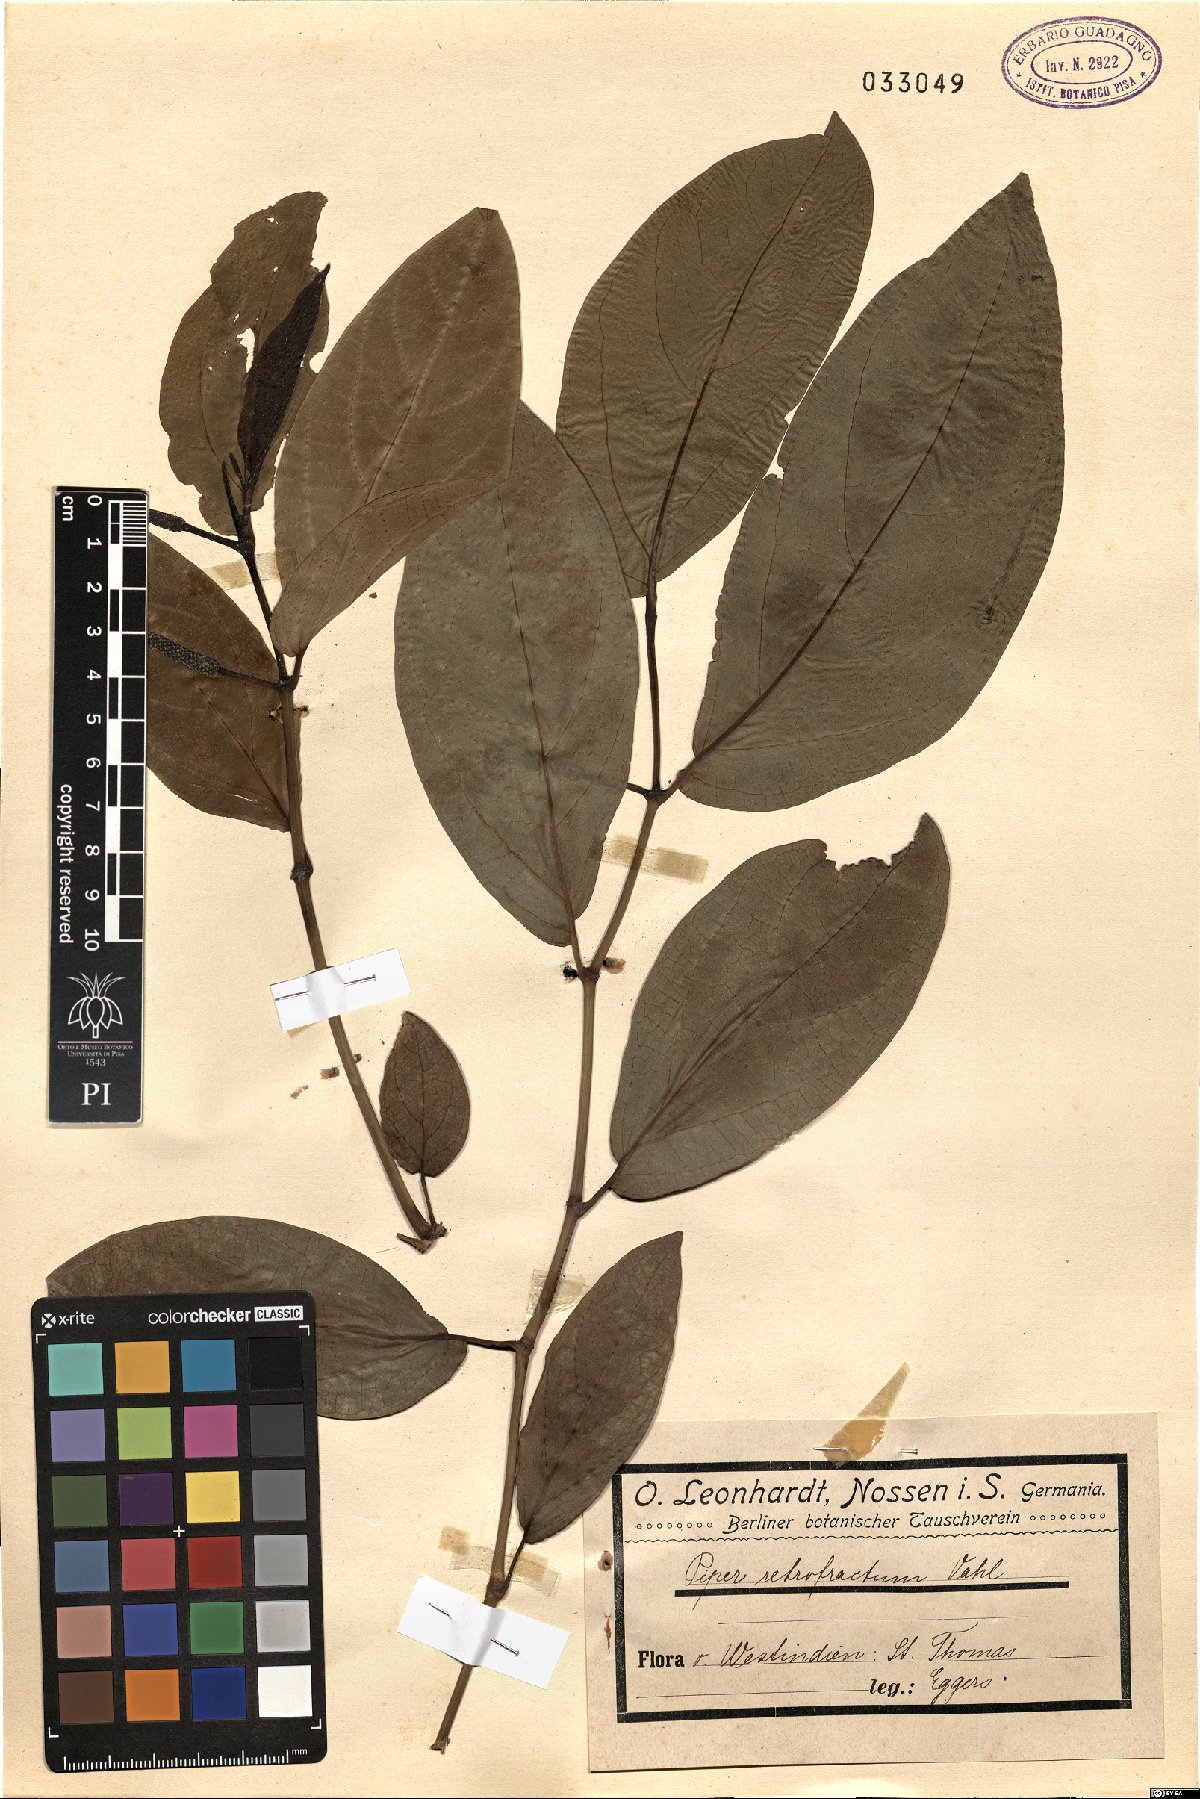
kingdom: Plantae
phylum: Tracheophyta
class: Magnoliopsida
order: Piperales
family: Piperaceae
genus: Piper
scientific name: Piper retrofractum
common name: Javanese long pepper
